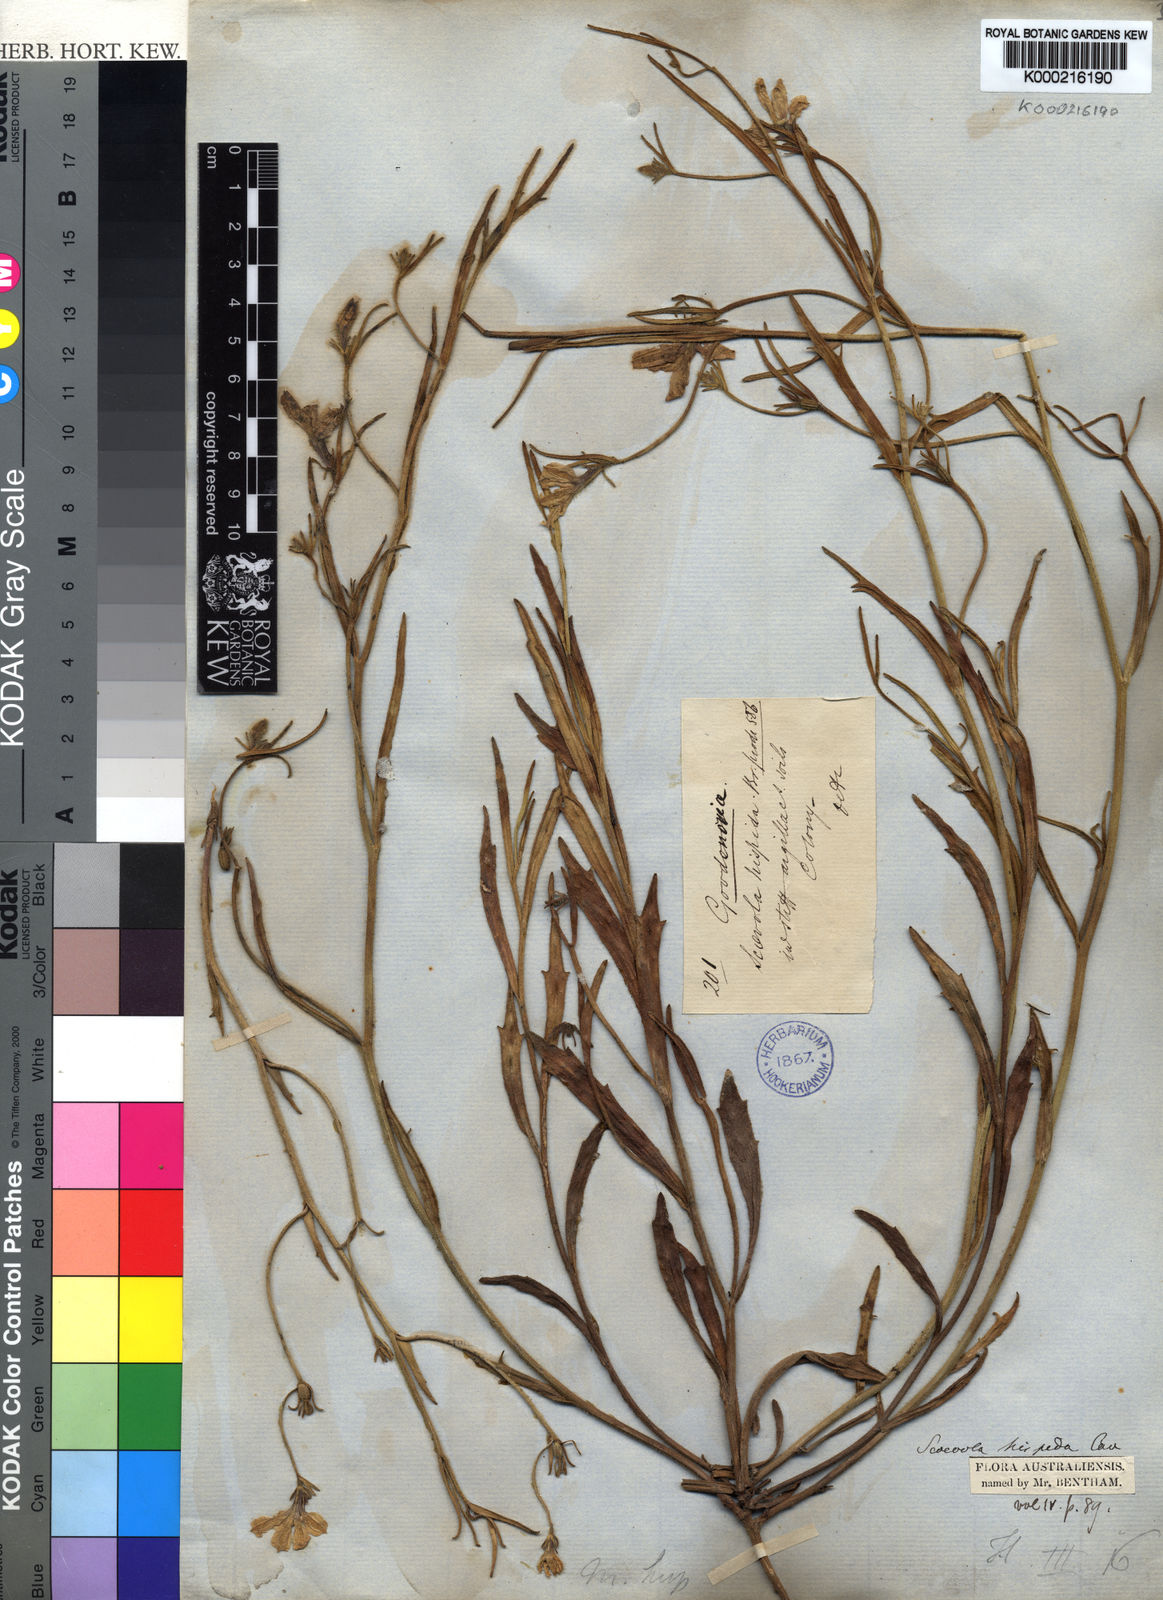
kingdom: Plantae
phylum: Tracheophyta
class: Magnoliopsida
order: Asterales
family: Goodeniaceae
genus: Scaevola
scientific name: Scaevola
